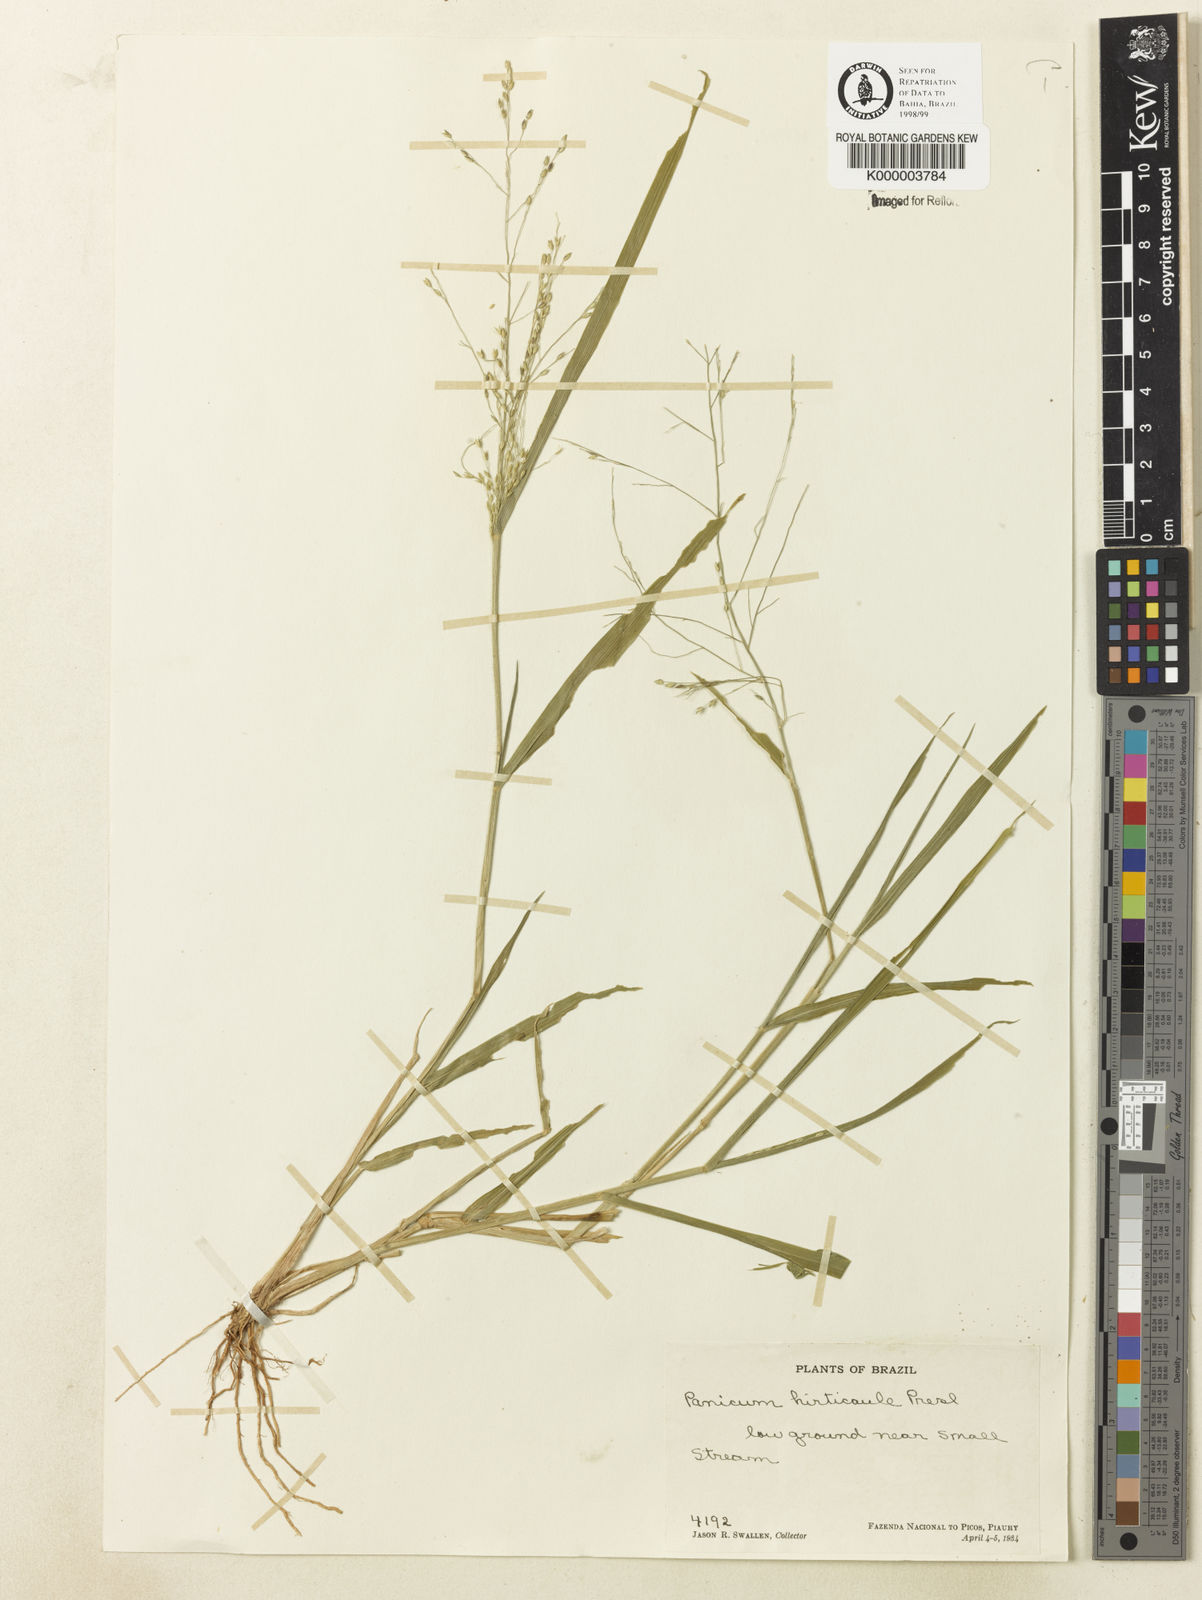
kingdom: Plantae
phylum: Tracheophyta
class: Liliopsida
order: Poales
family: Poaceae
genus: Panicum
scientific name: Panicum hirticaule
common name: Rough-stalk witchgrass
